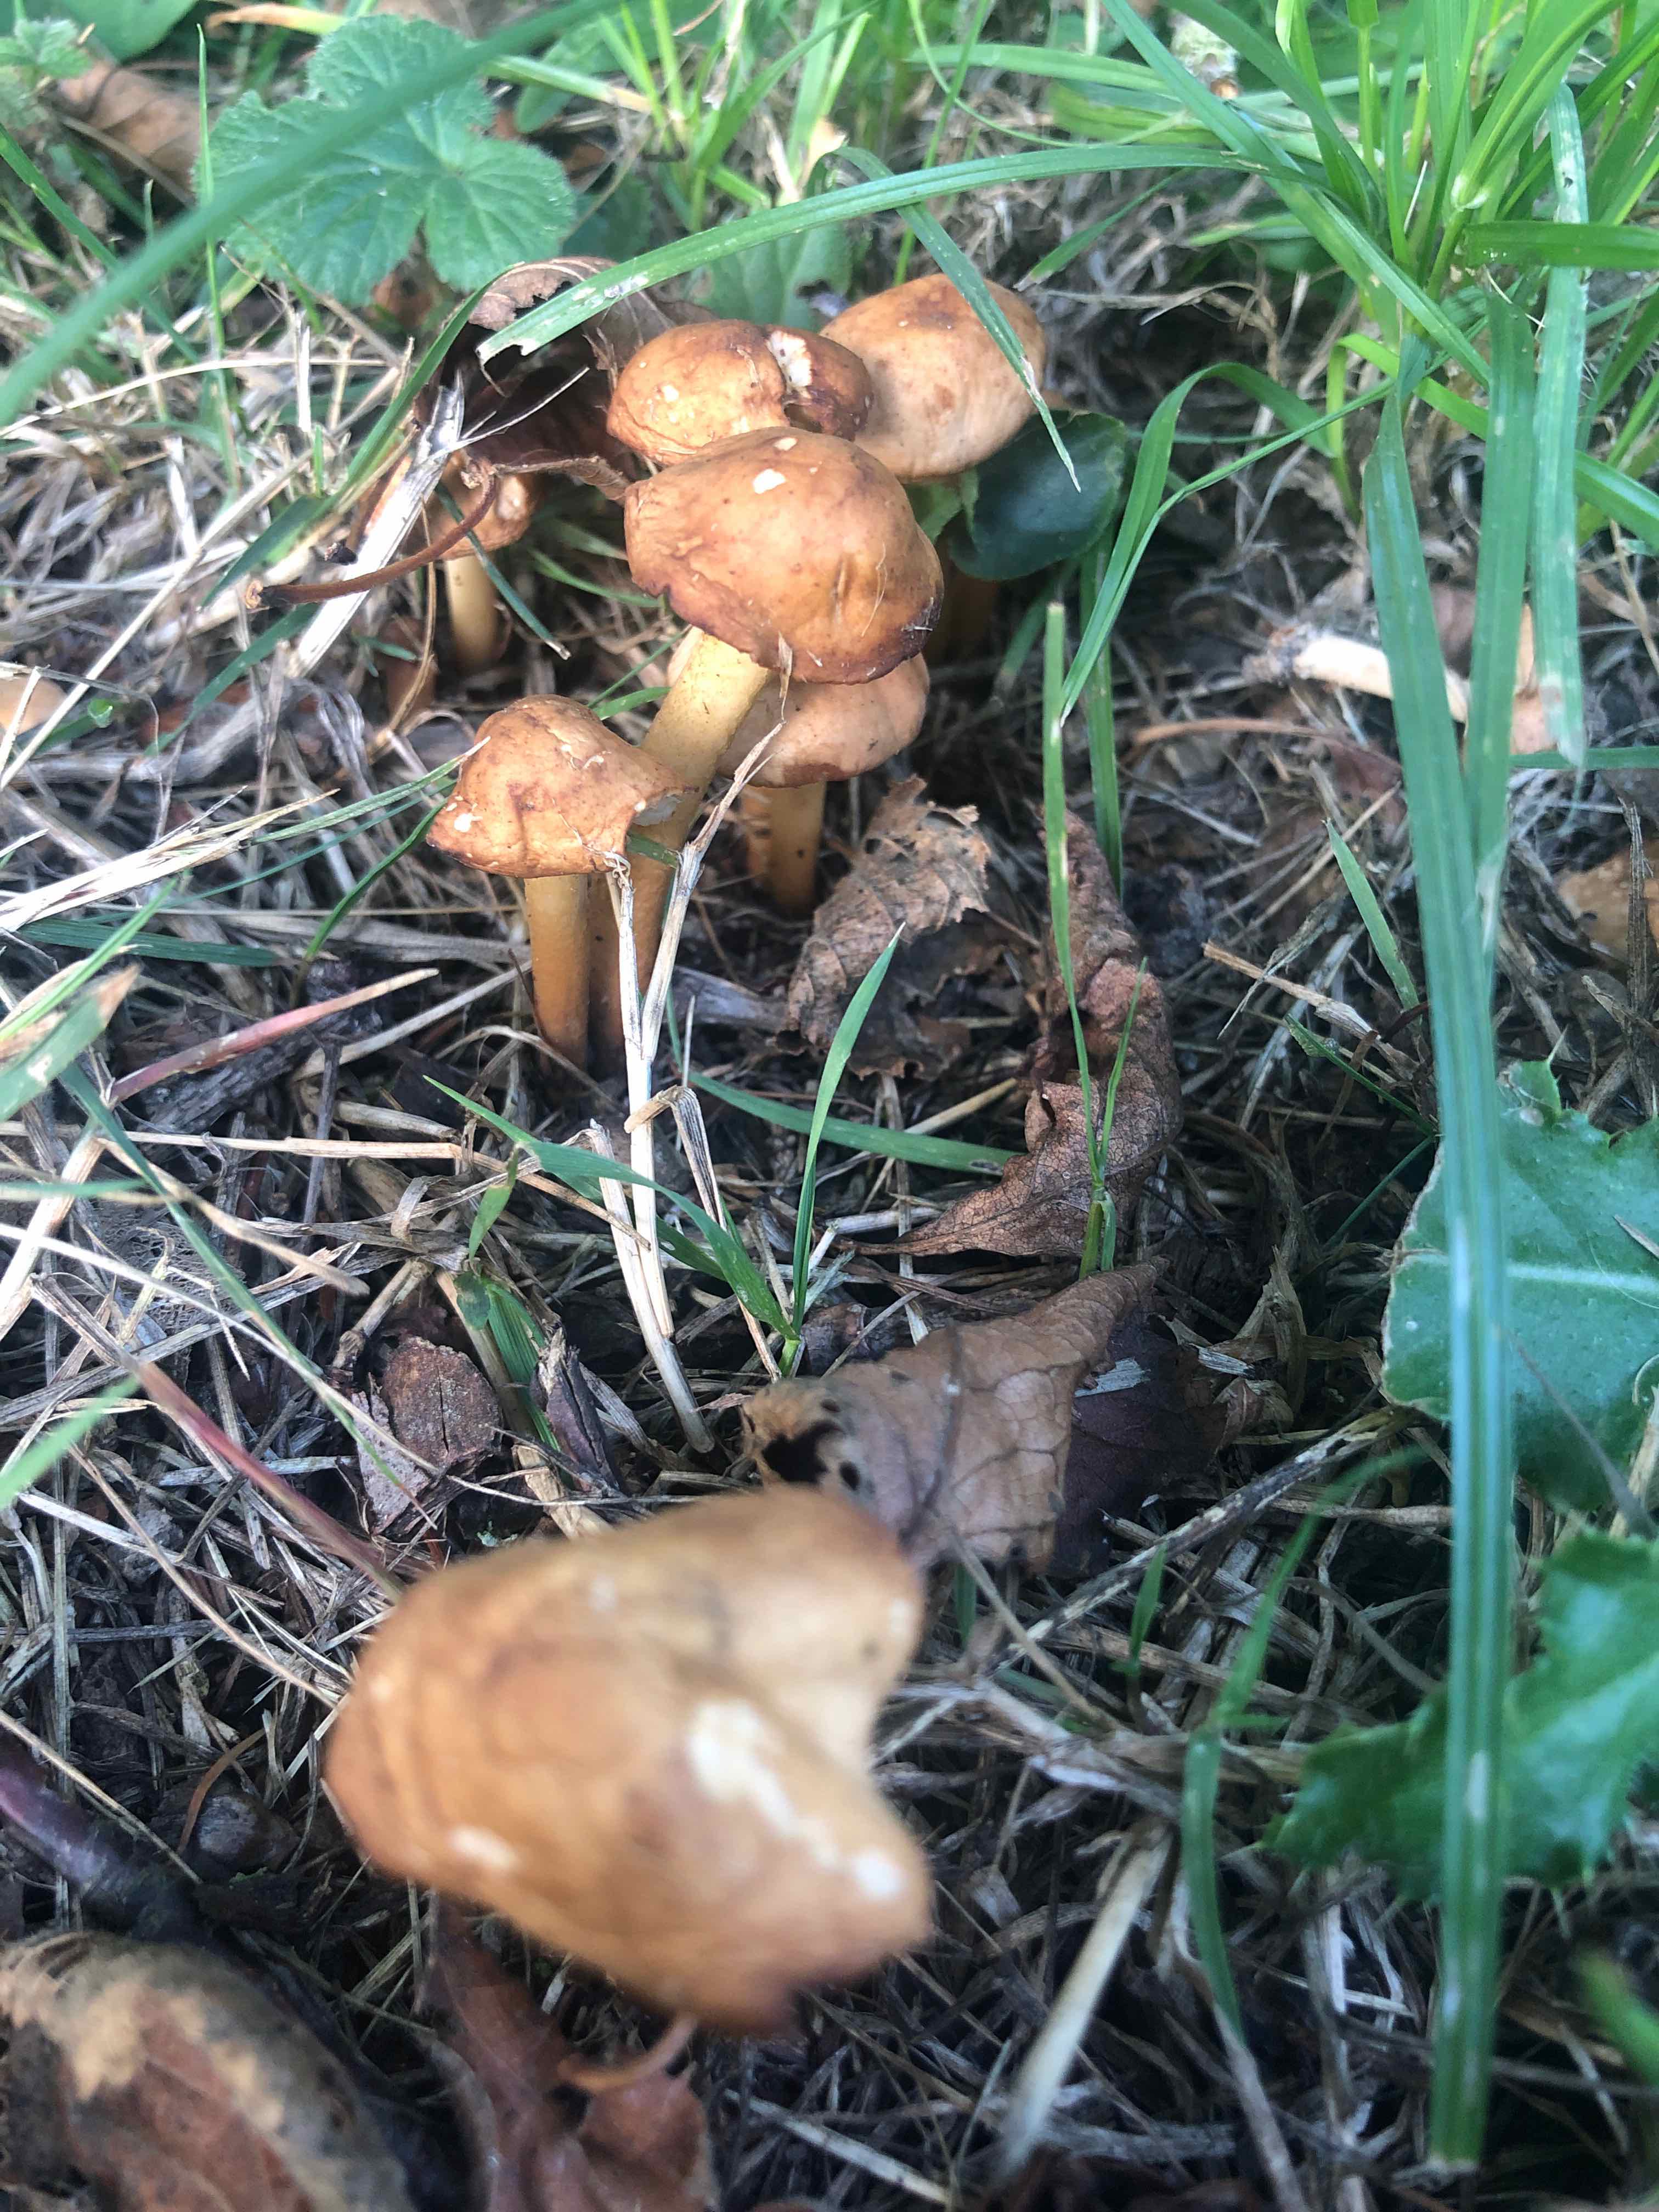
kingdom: Fungi
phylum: Basidiomycota
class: Agaricomycetes
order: Agaricales
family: Marasmiaceae
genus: Marasmius
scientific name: Marasmius oreades
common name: elledans-bruskhat
